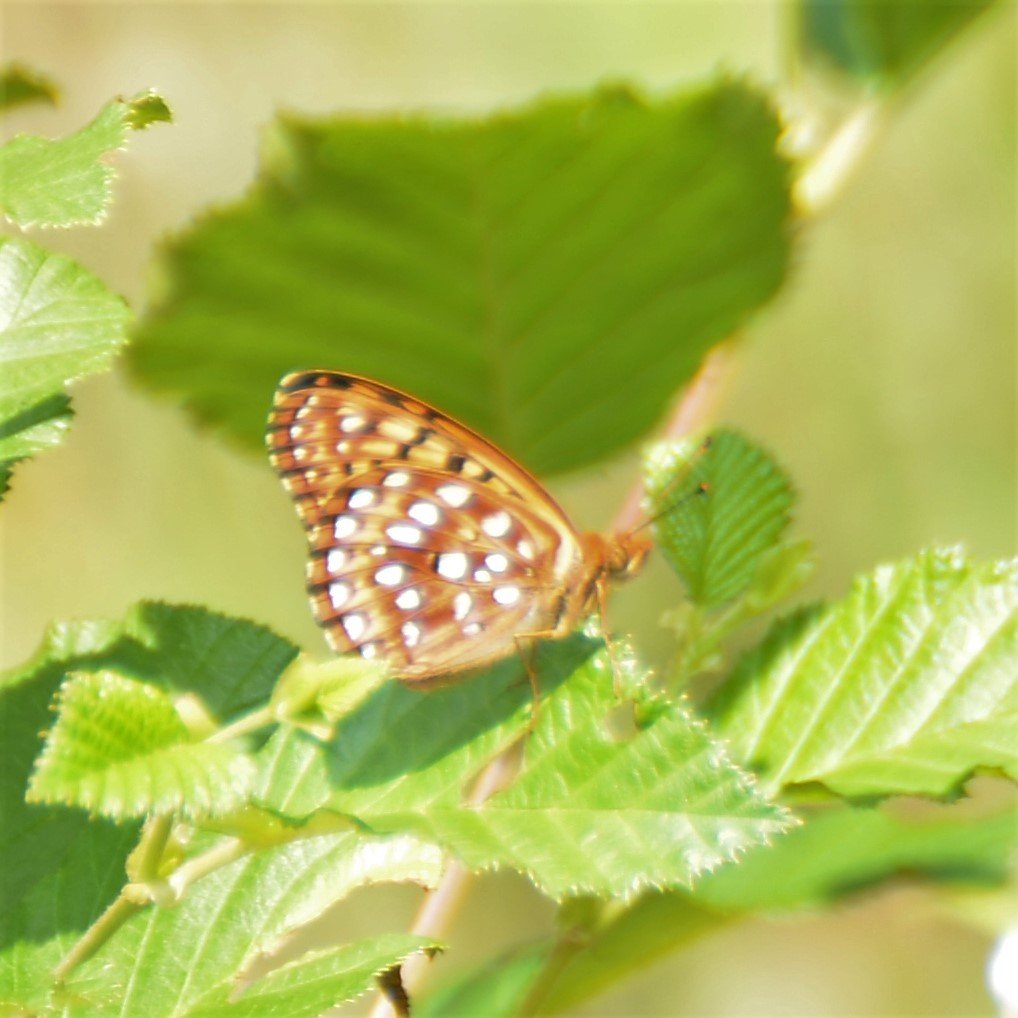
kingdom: Animalia
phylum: Arthropoda
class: Insecta
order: Lepidoptera
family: Nymphalidae
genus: Speyeria
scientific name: Speyeria aphrodite
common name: Aphrodite Fritillary
